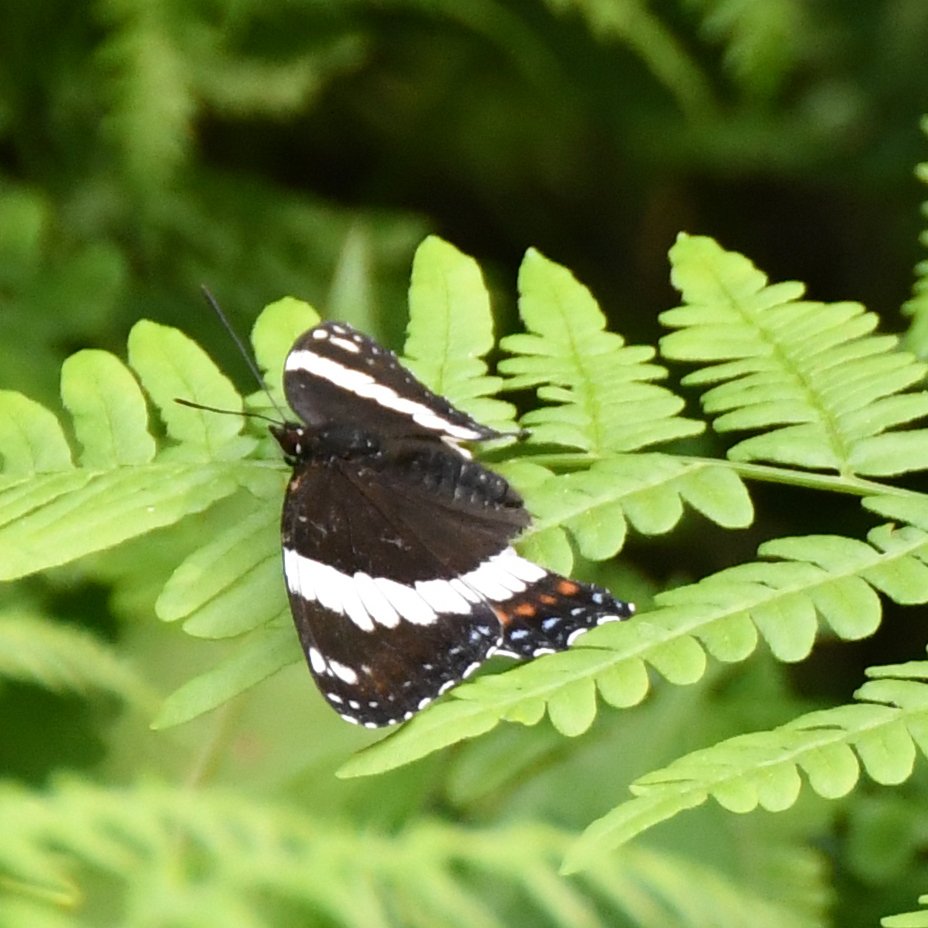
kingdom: Animalia
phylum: Arthropoda
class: Insecta
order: Lepidoptera
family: Nymphalidae
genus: Limenitis
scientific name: Limenitis arthemis
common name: Red-spotted Admiral
